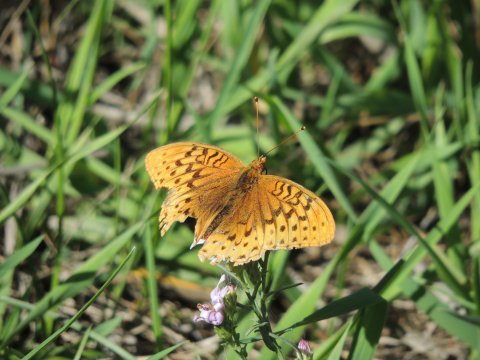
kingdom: Animalia
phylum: Arthropoda
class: Insecta
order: Lepidoptera
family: Nymphalidae
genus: Speyeria
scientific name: Speyeria cybele
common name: Great Spangled Fritillary
